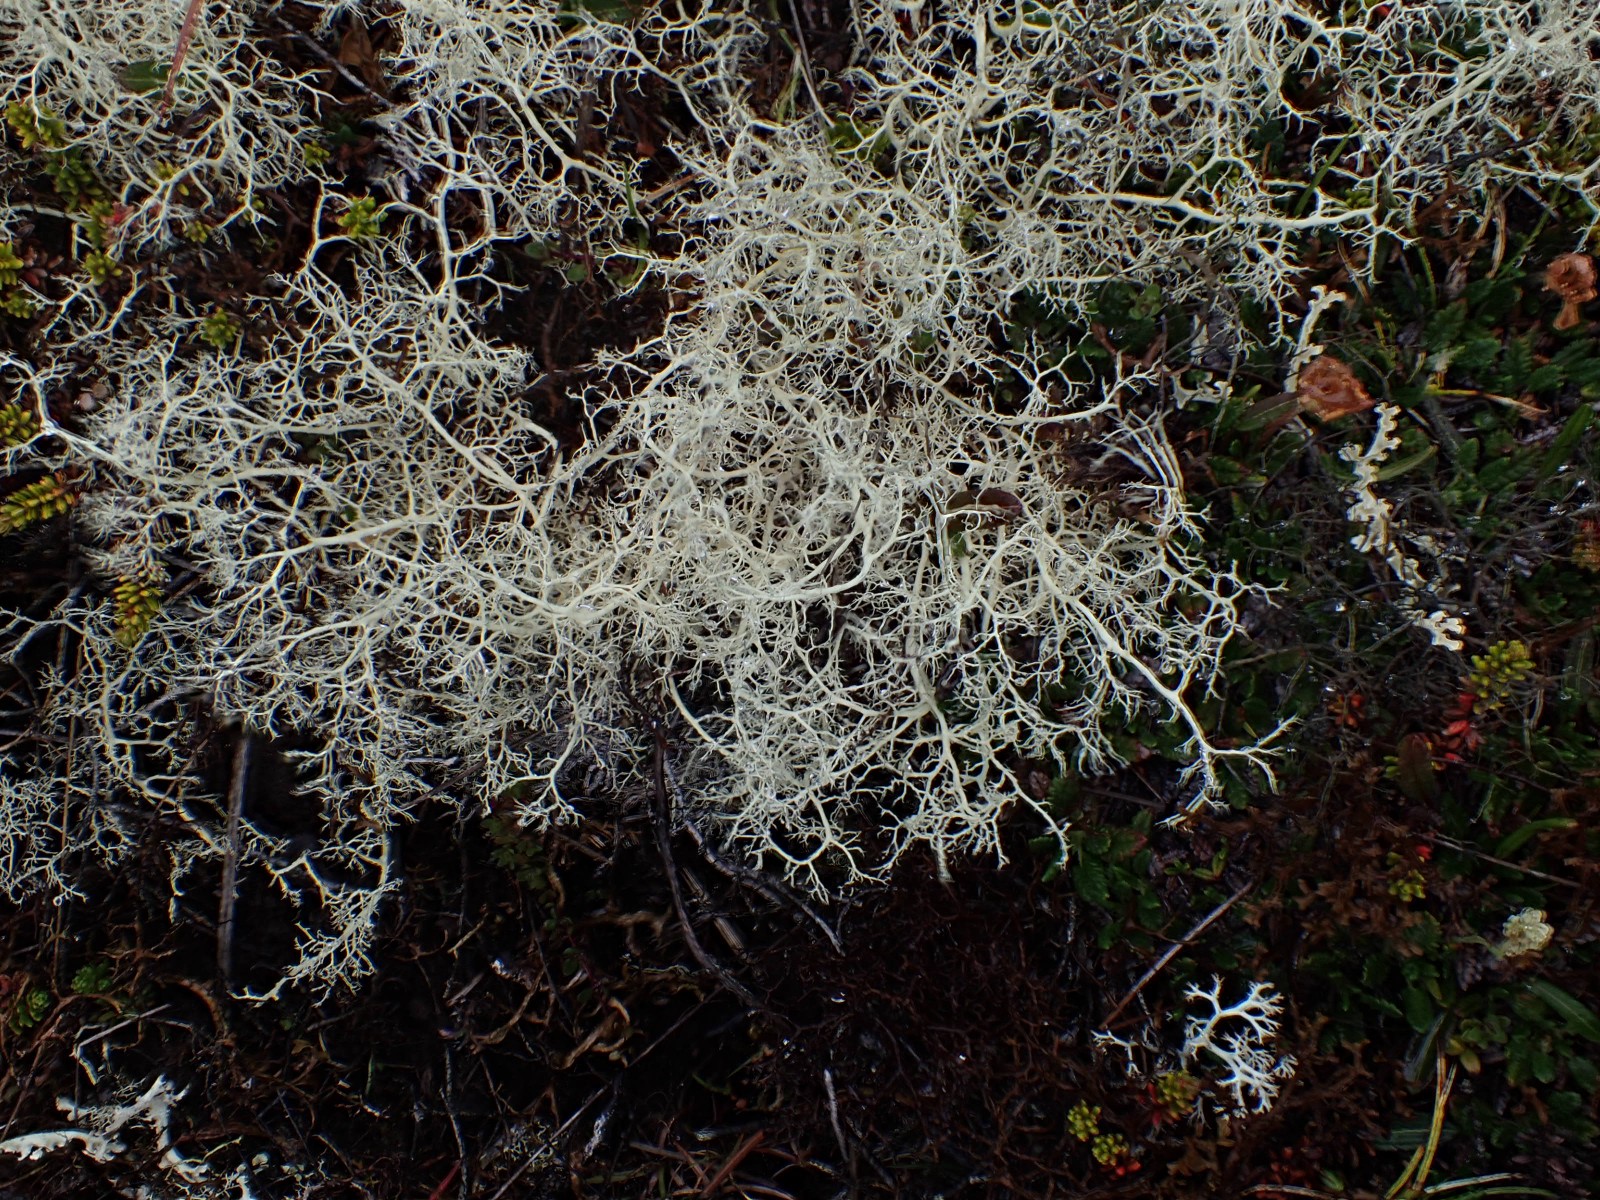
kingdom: Fungi
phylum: Ascomycota
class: Lecanoromycetes
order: Lecanorales
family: Parmeliaceae
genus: Nephromopsis
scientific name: Nephromopsis cucullata
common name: kræmmerhus-kruslav
